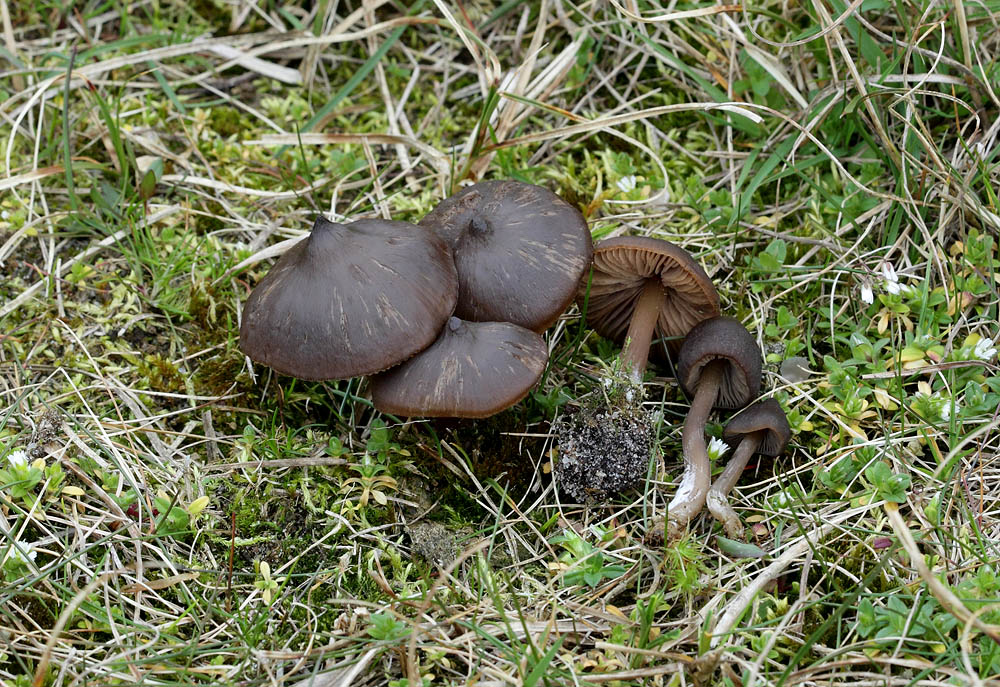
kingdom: Fungi
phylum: Basidiomycota
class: Agaricomycetes
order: Agaricales
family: Entolomataceae
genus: Entoloma
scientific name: Entoloma vernum
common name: vår-rødblad
